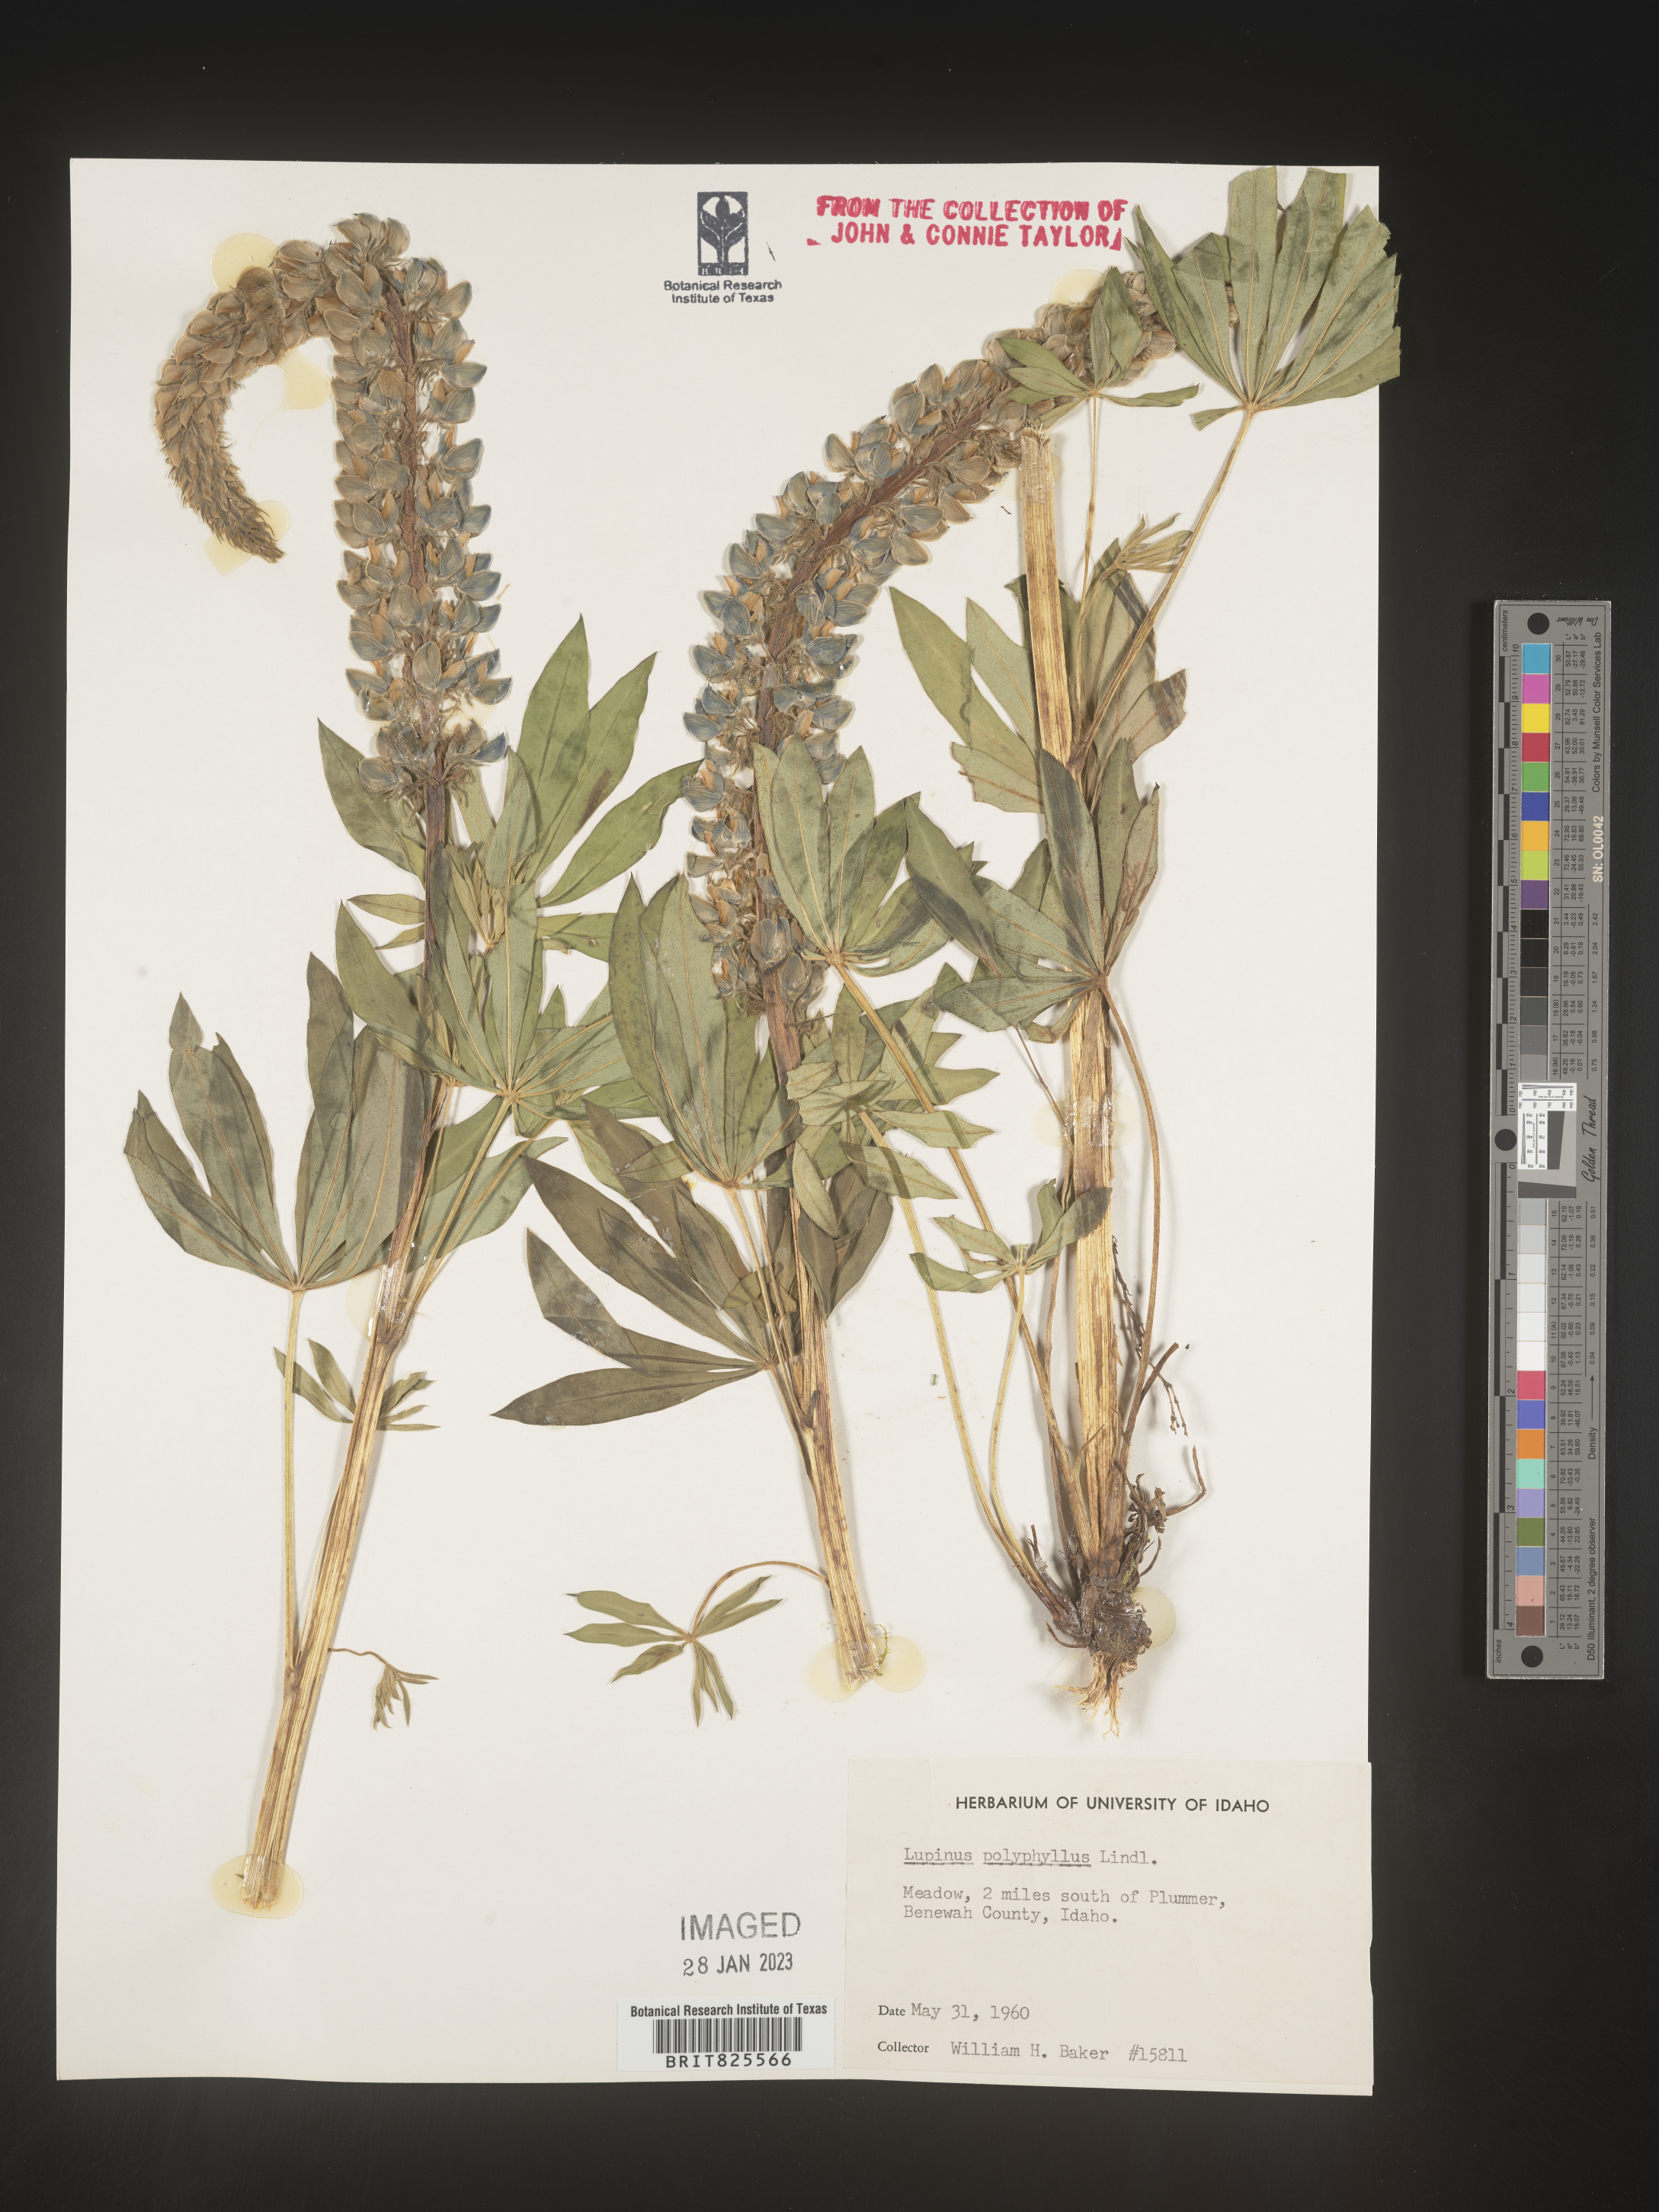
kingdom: Plantae
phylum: Tracheophyta
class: Magnoliopsida
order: Fabales
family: Fabaceae
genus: Lupinus
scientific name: Lupinus
